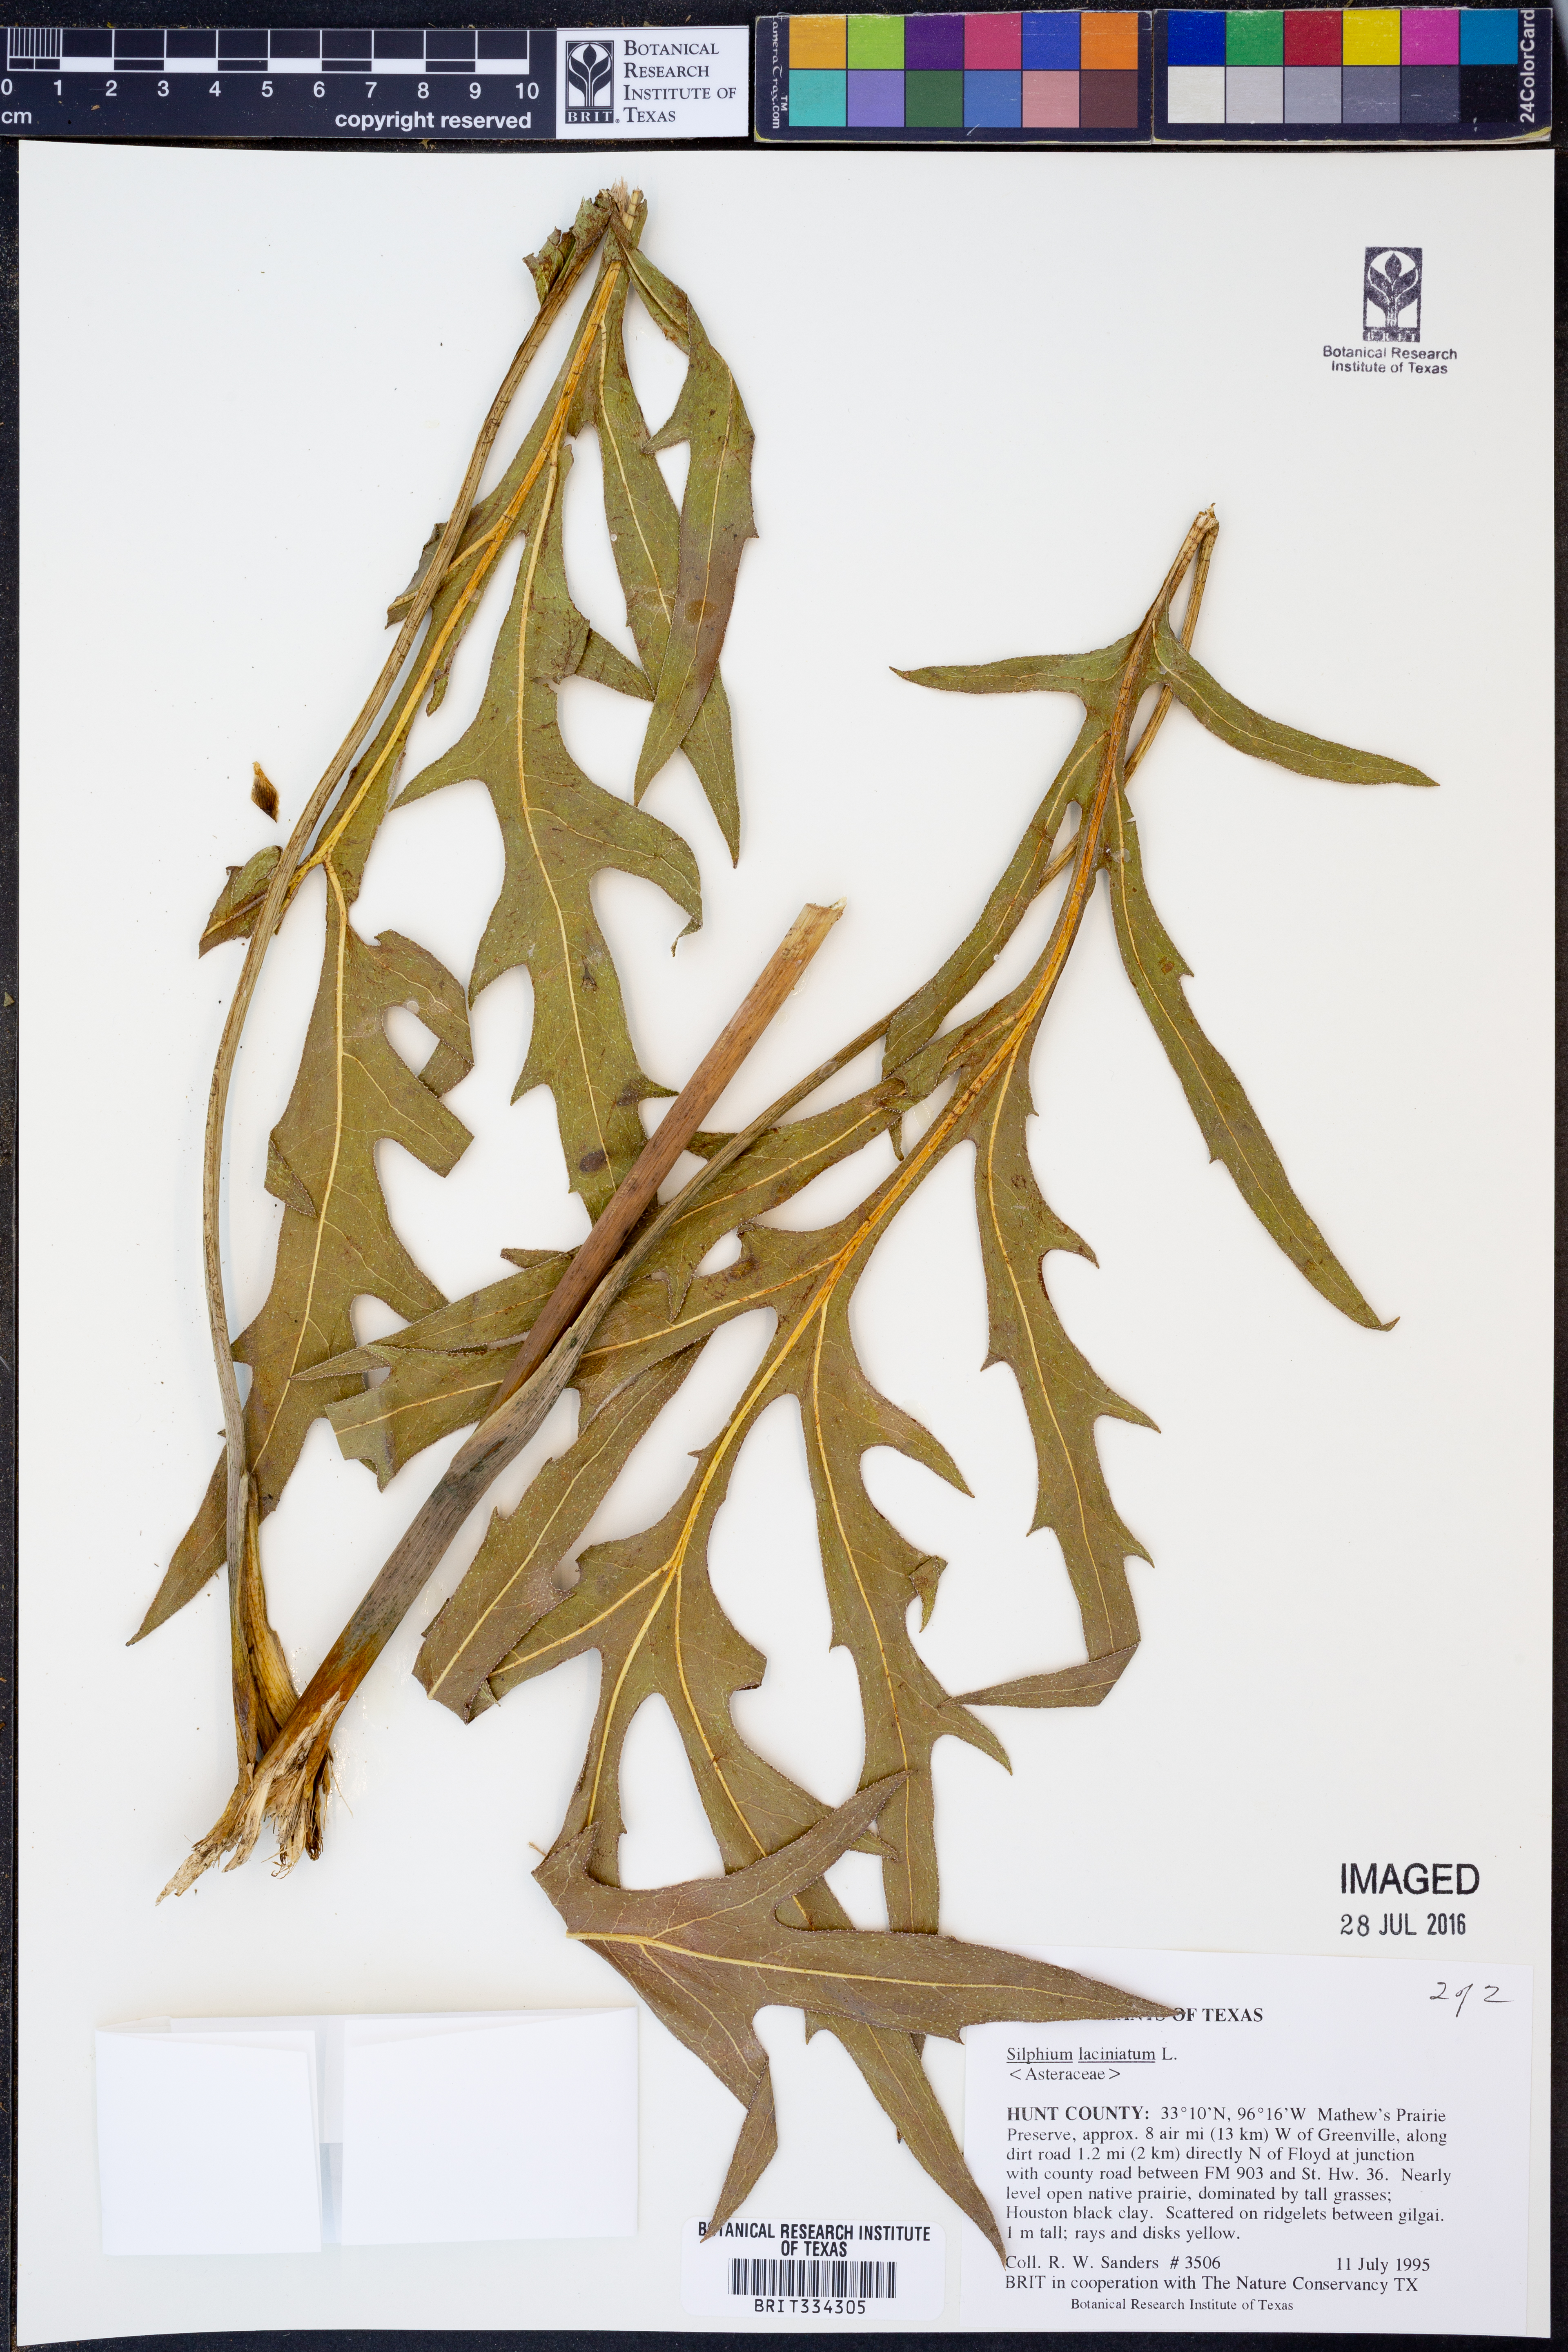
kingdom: Plantae
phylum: Tracheophyta
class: Magnoliopsida
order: Asterales
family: Asteraceae
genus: Silphium
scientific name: Silphium laciniatum
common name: Polarplant
